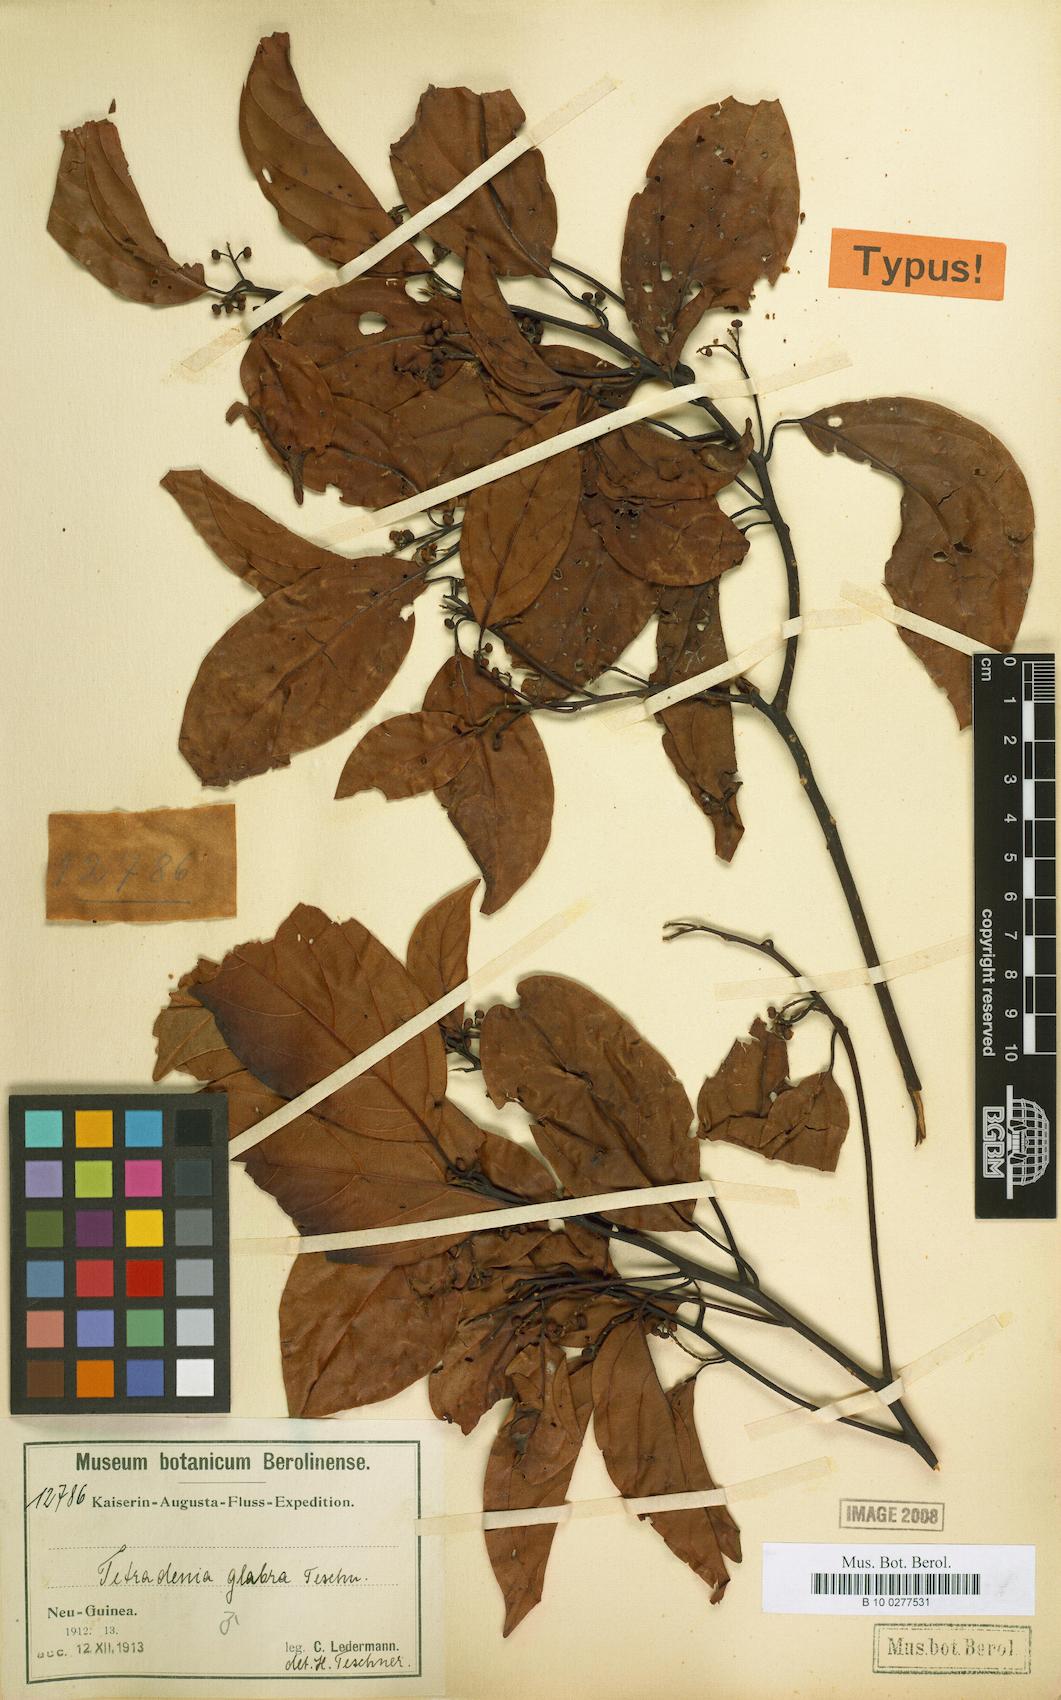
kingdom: Plantae
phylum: Tracheophyta
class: Magnoliopsida
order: Laurales
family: Lauraceae
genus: Neolitsea
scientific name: Neolitsea glabra
